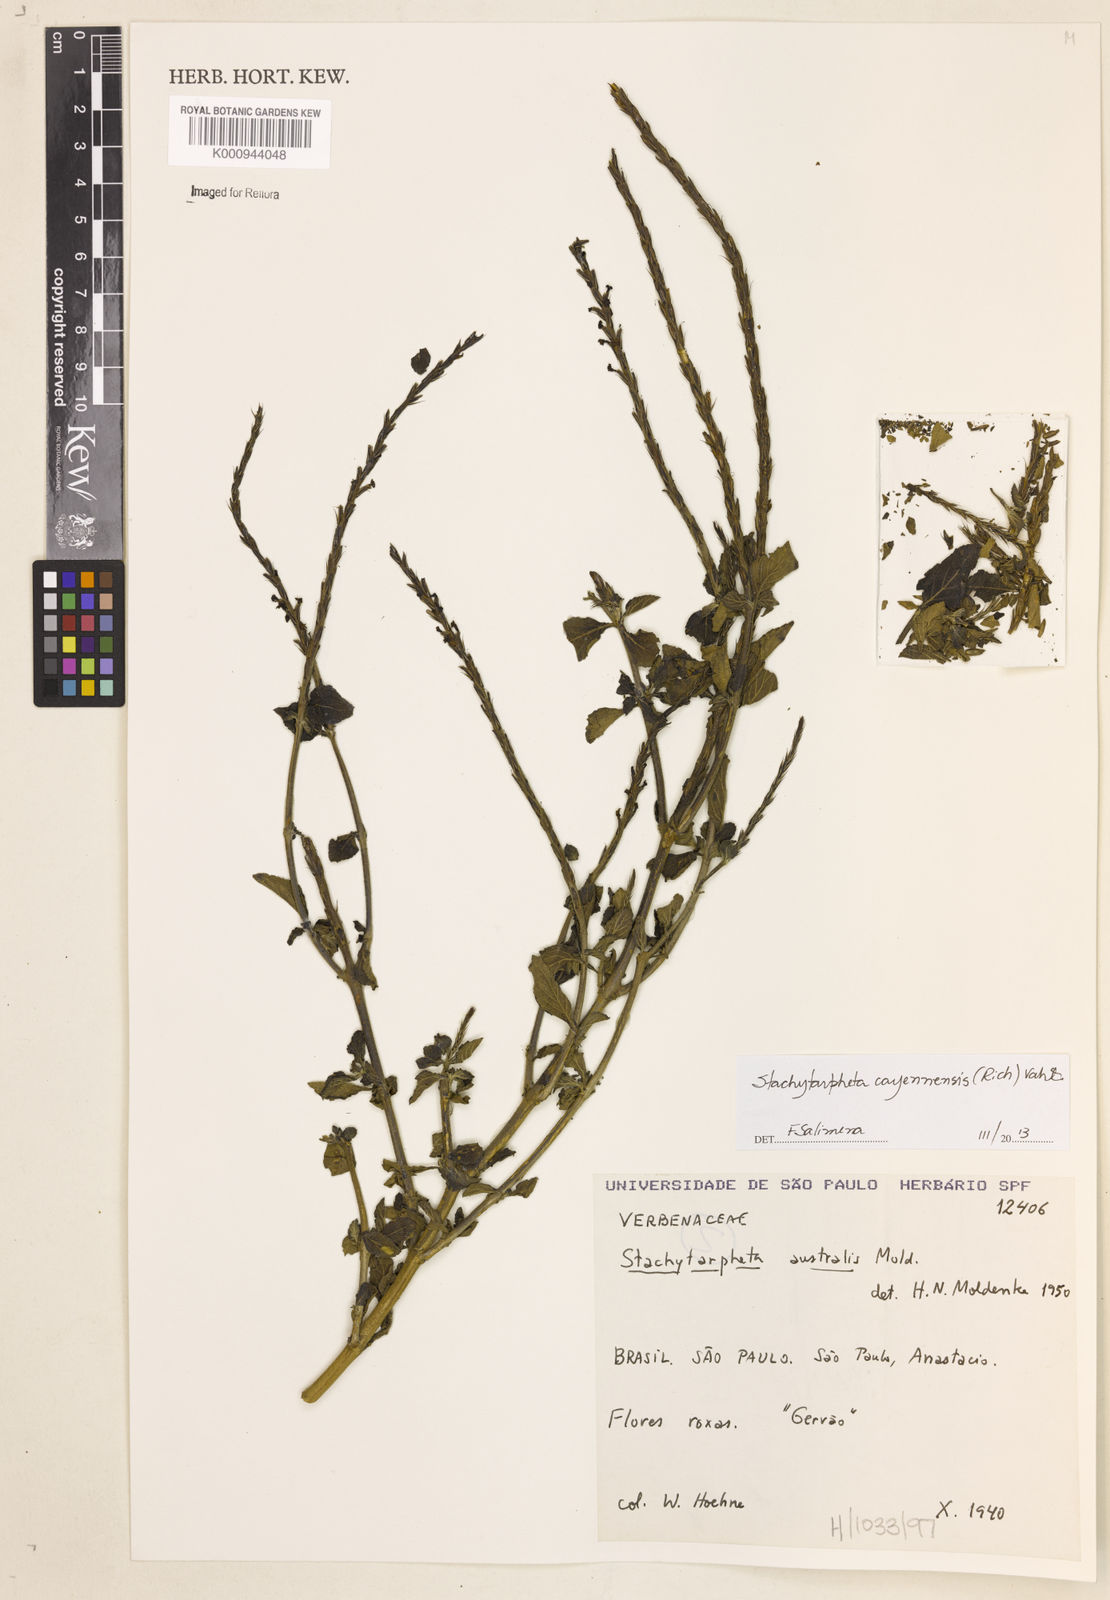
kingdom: Plantae
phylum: Tracheophyta
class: Magnoliopsida
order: Lamiales
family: Verbenaceae
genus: Aloysia
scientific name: Aloysia
